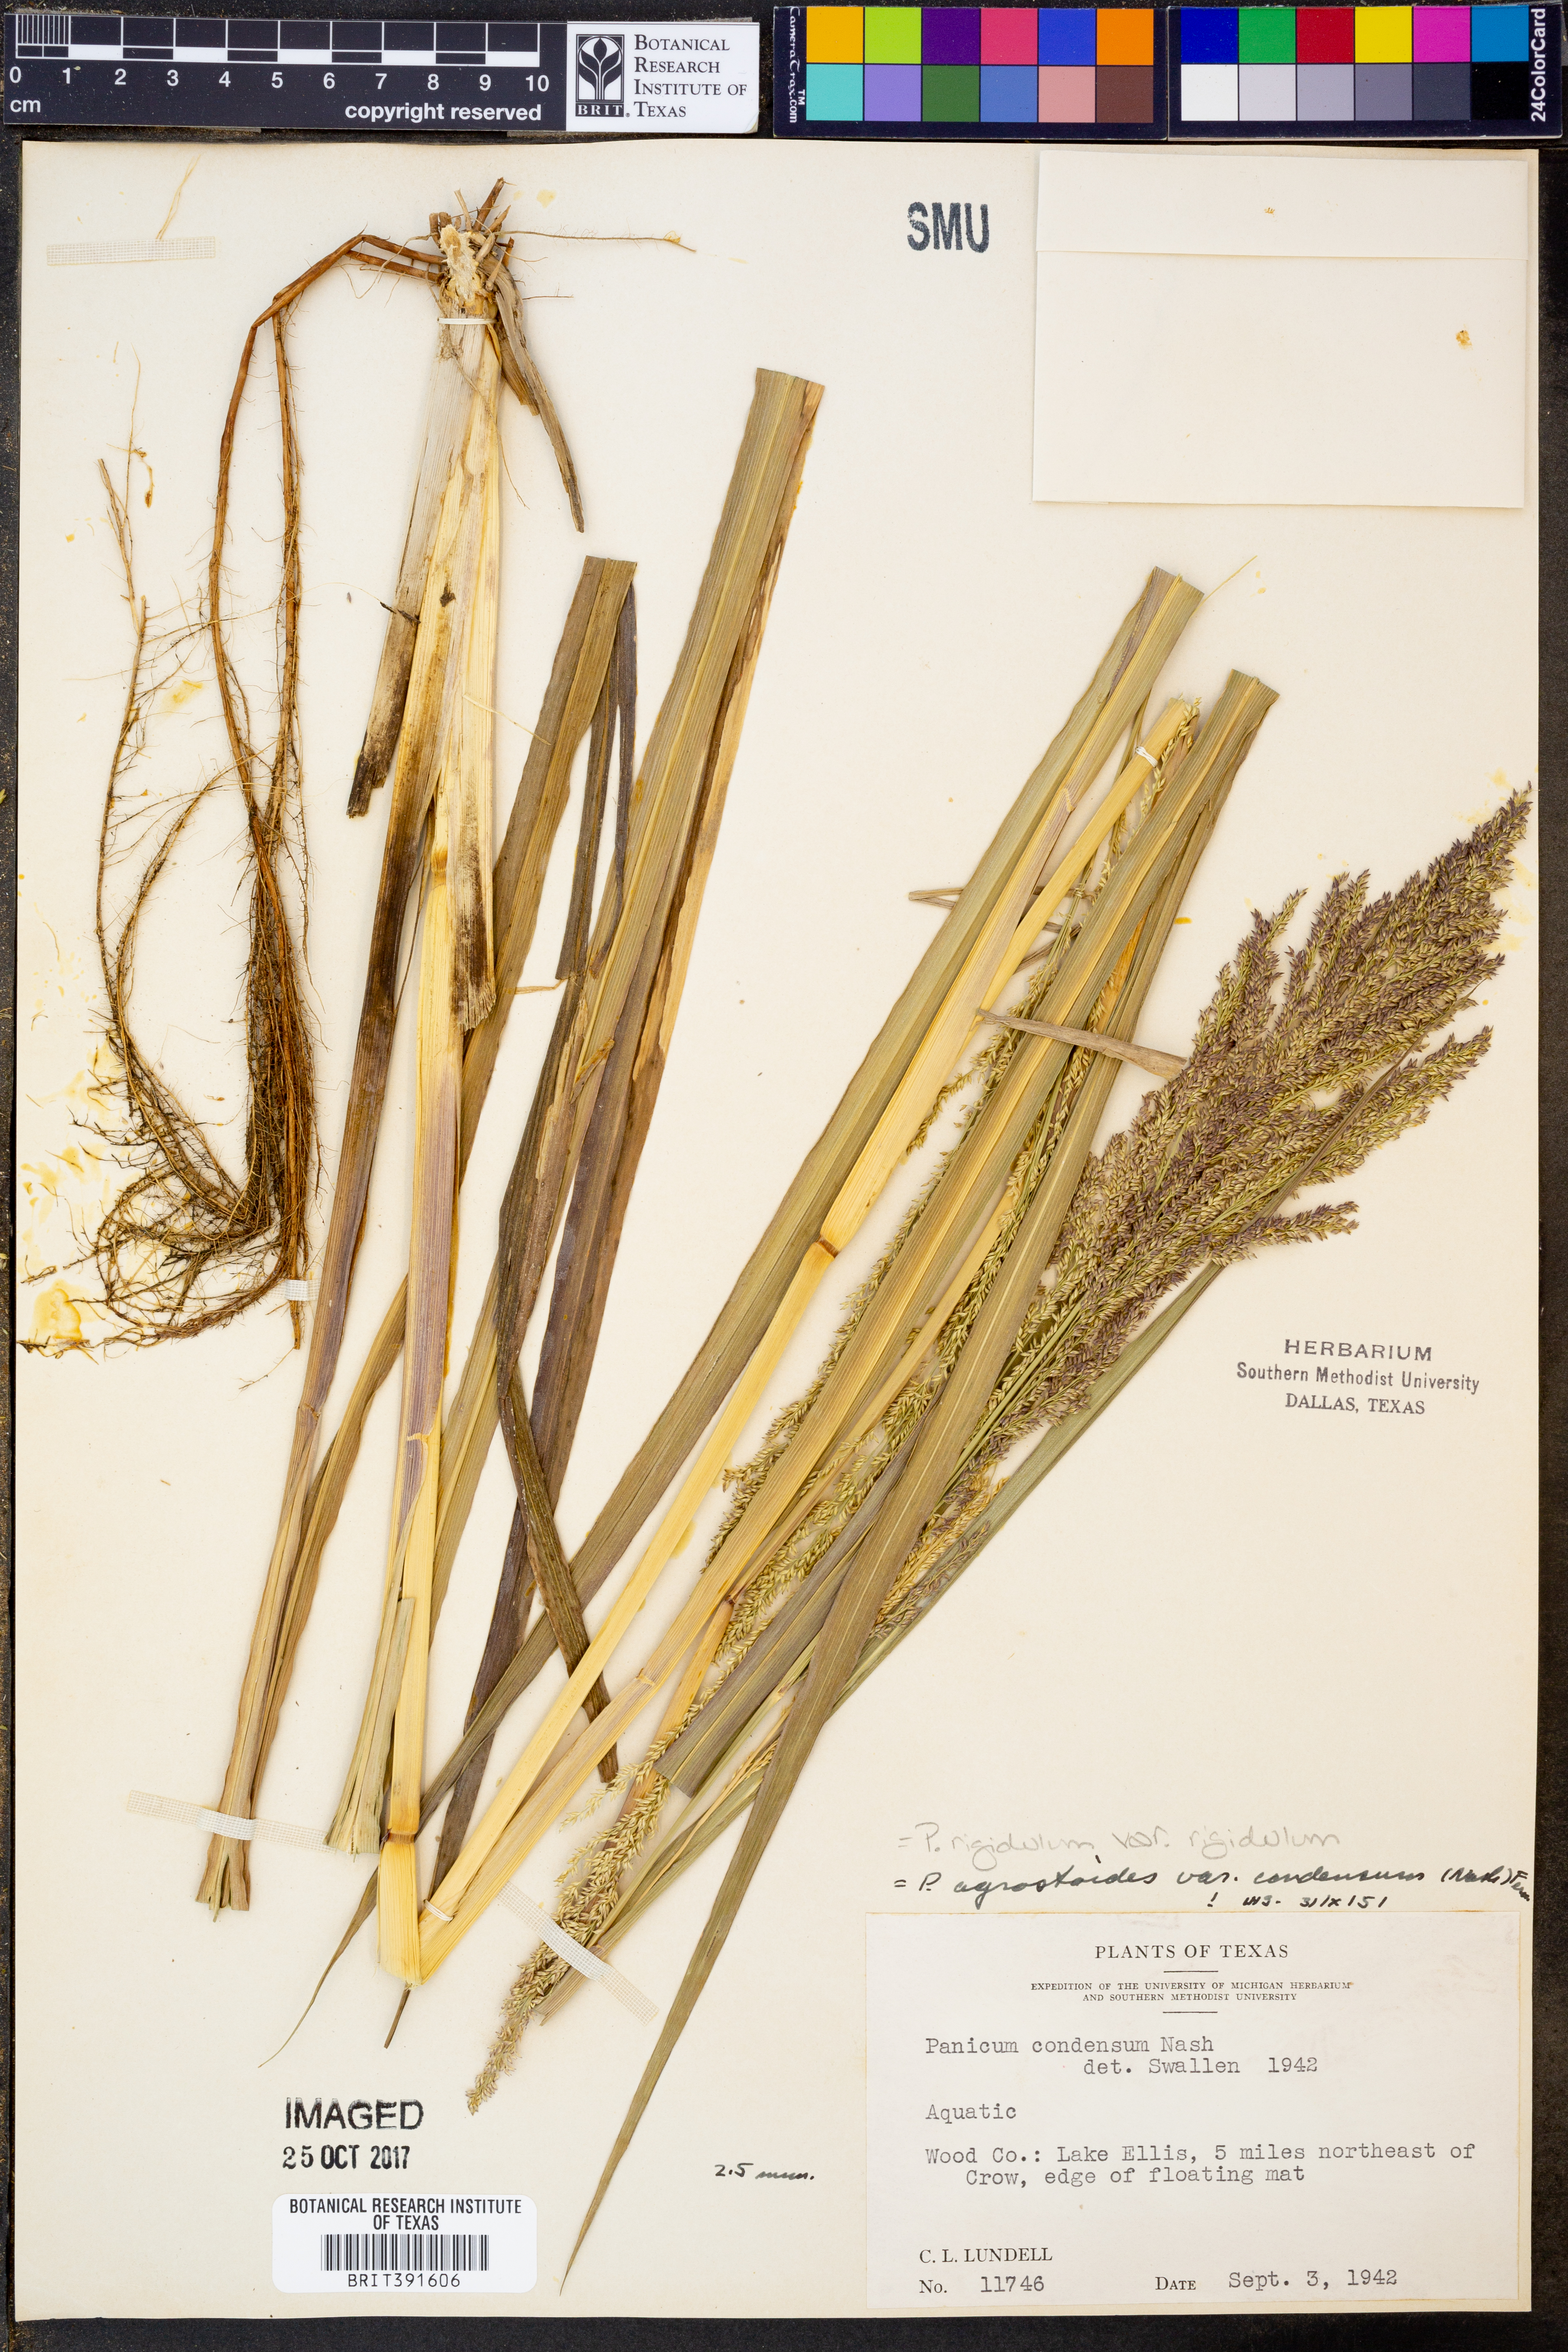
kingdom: Plantae
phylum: Tracheophyta
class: Liliopsida
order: Poales
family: Poaceae
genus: Coleataenia
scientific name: Coleataenia rigidula
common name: Redtop panicgrass
